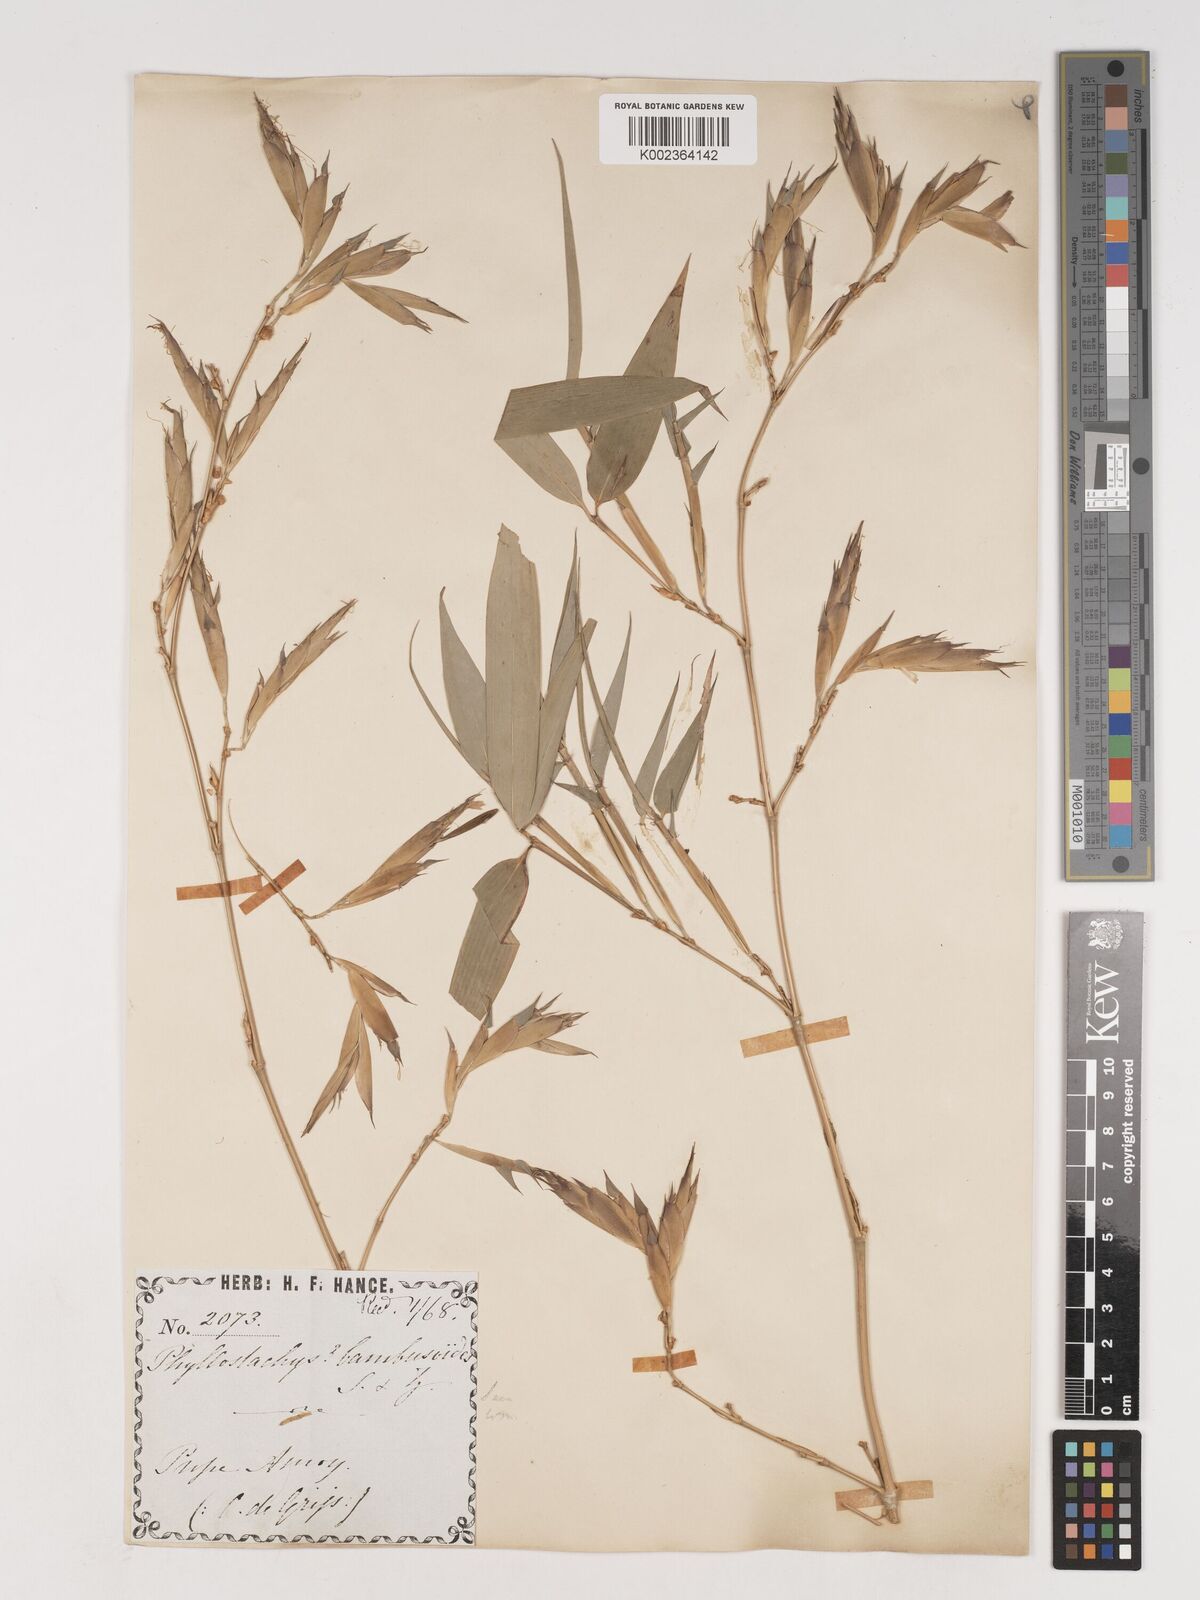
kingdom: Plantae
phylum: Tracheophyta
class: Liliopsida
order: Poales
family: Poaceae
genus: Phyllostachys
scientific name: Phyllostachys reticulata
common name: Bamboo
